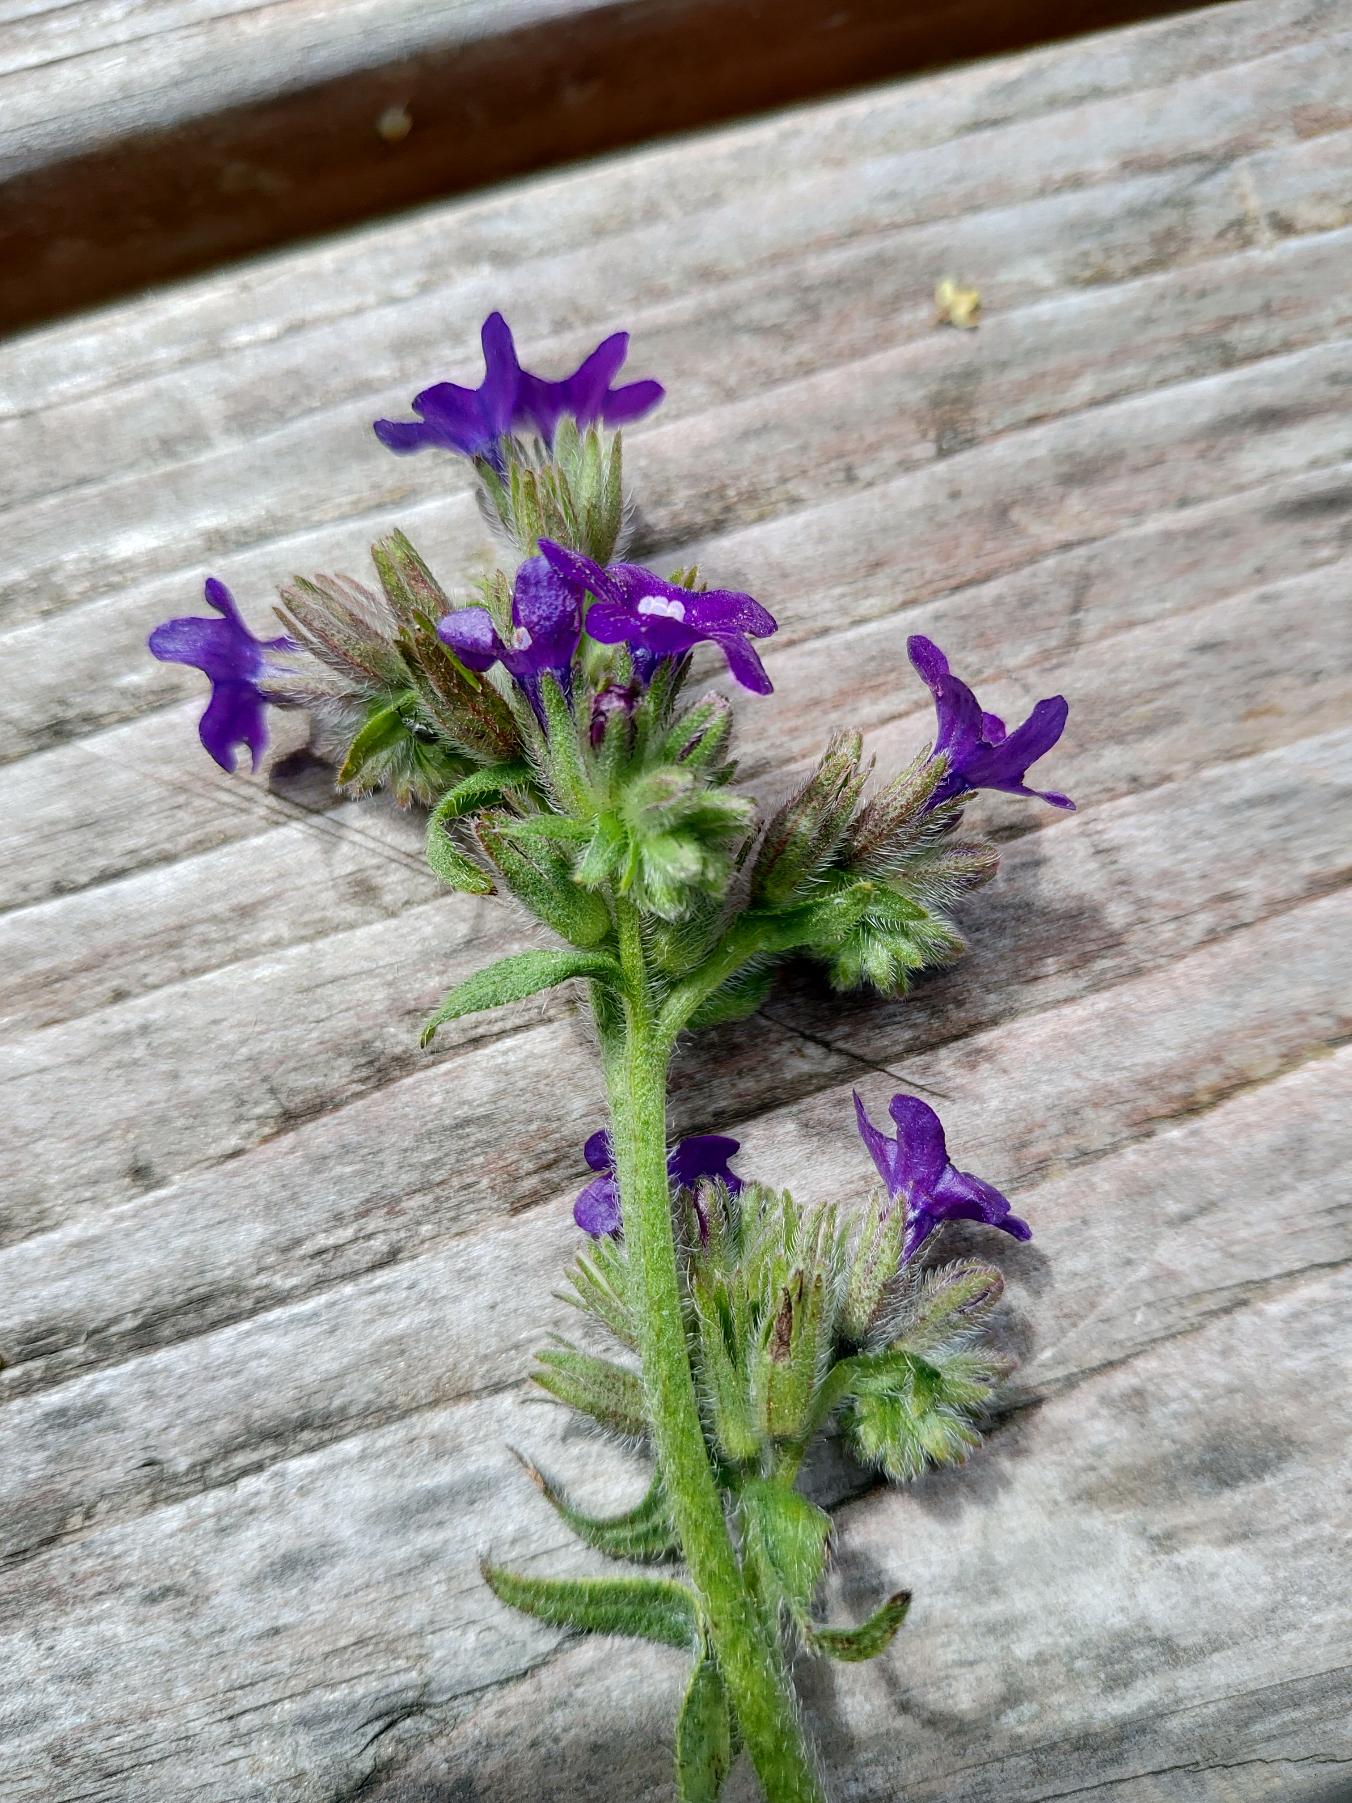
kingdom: Plantae
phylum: Tracheophyta
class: Magnoliopsida
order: Boraginales
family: Boraginaceae
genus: Anchusa
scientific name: Anchusa officinalis
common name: Læge-oksetunge
